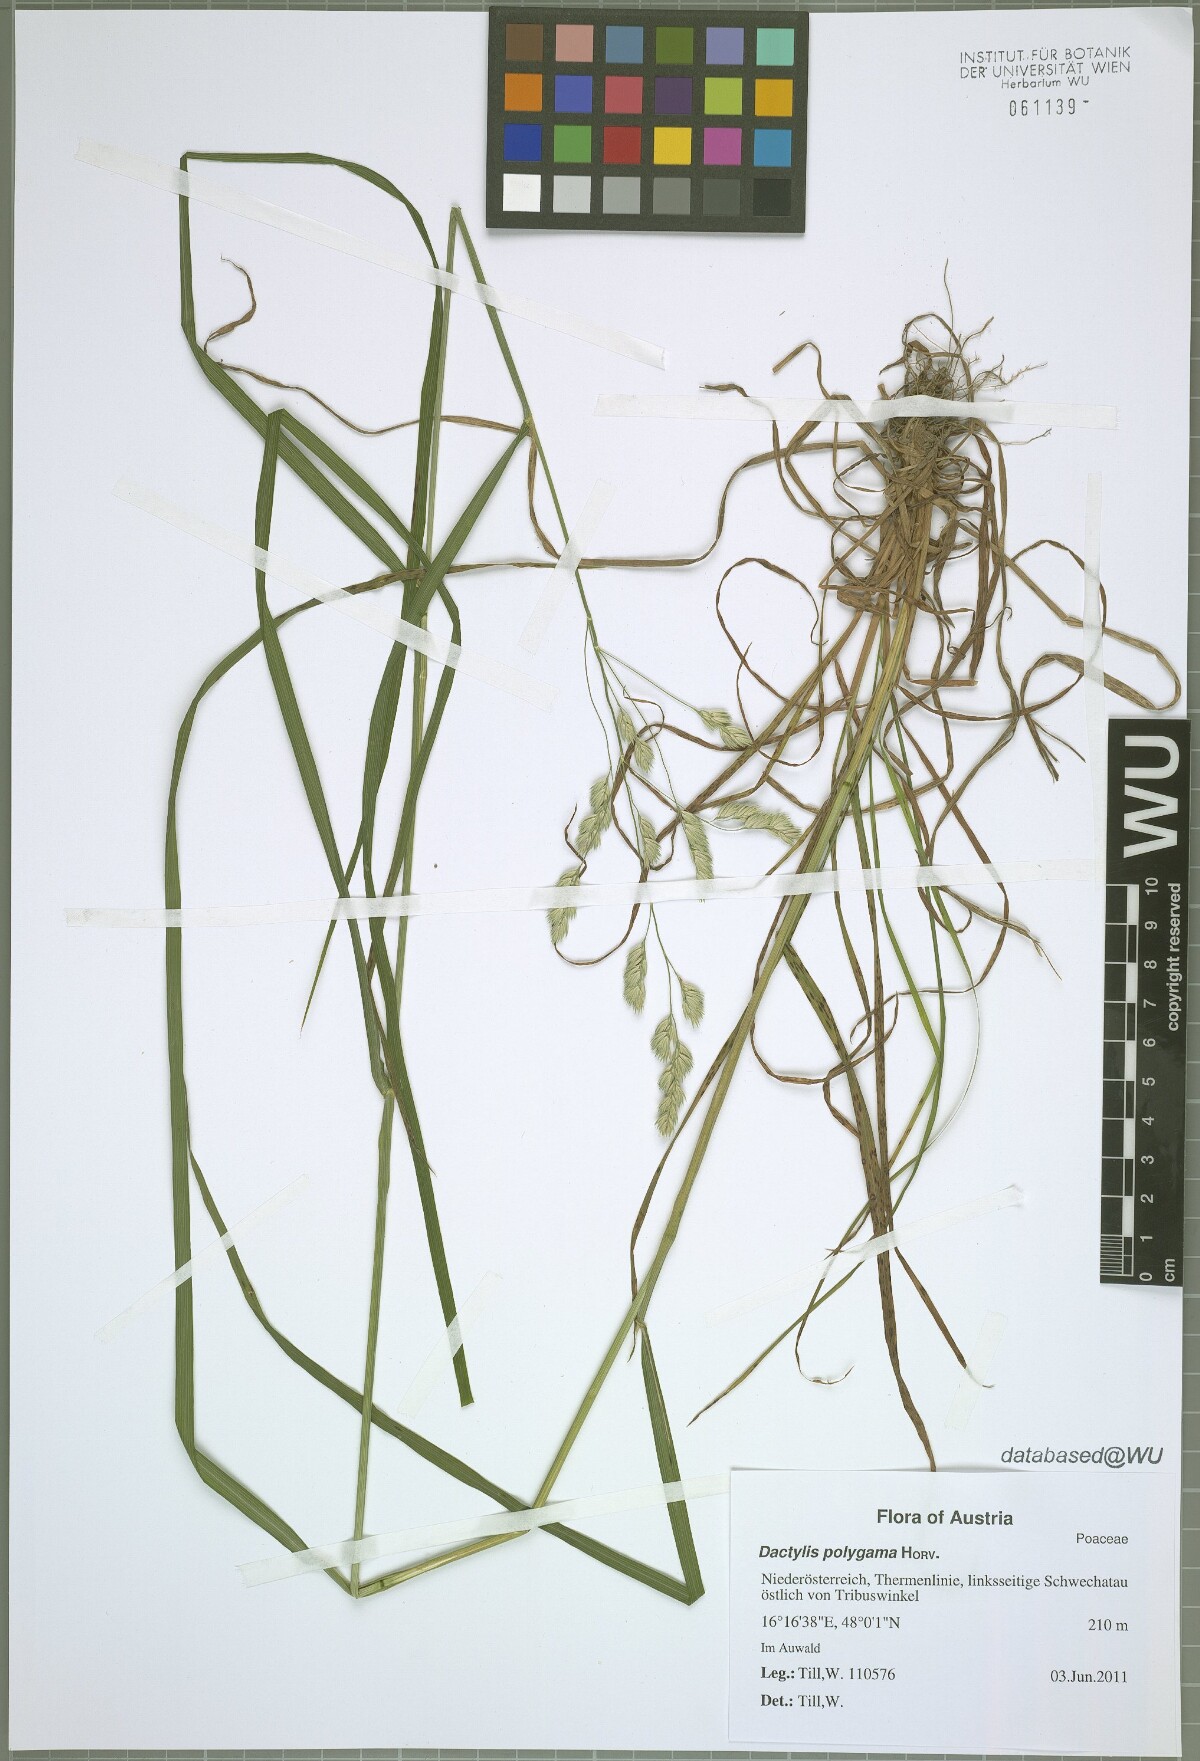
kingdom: Plantae
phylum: Tracheophyta
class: Liliopsida
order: Poales
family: Poaceae
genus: Dactylis
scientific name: Dactylis glomerata
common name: Orchardgrass
